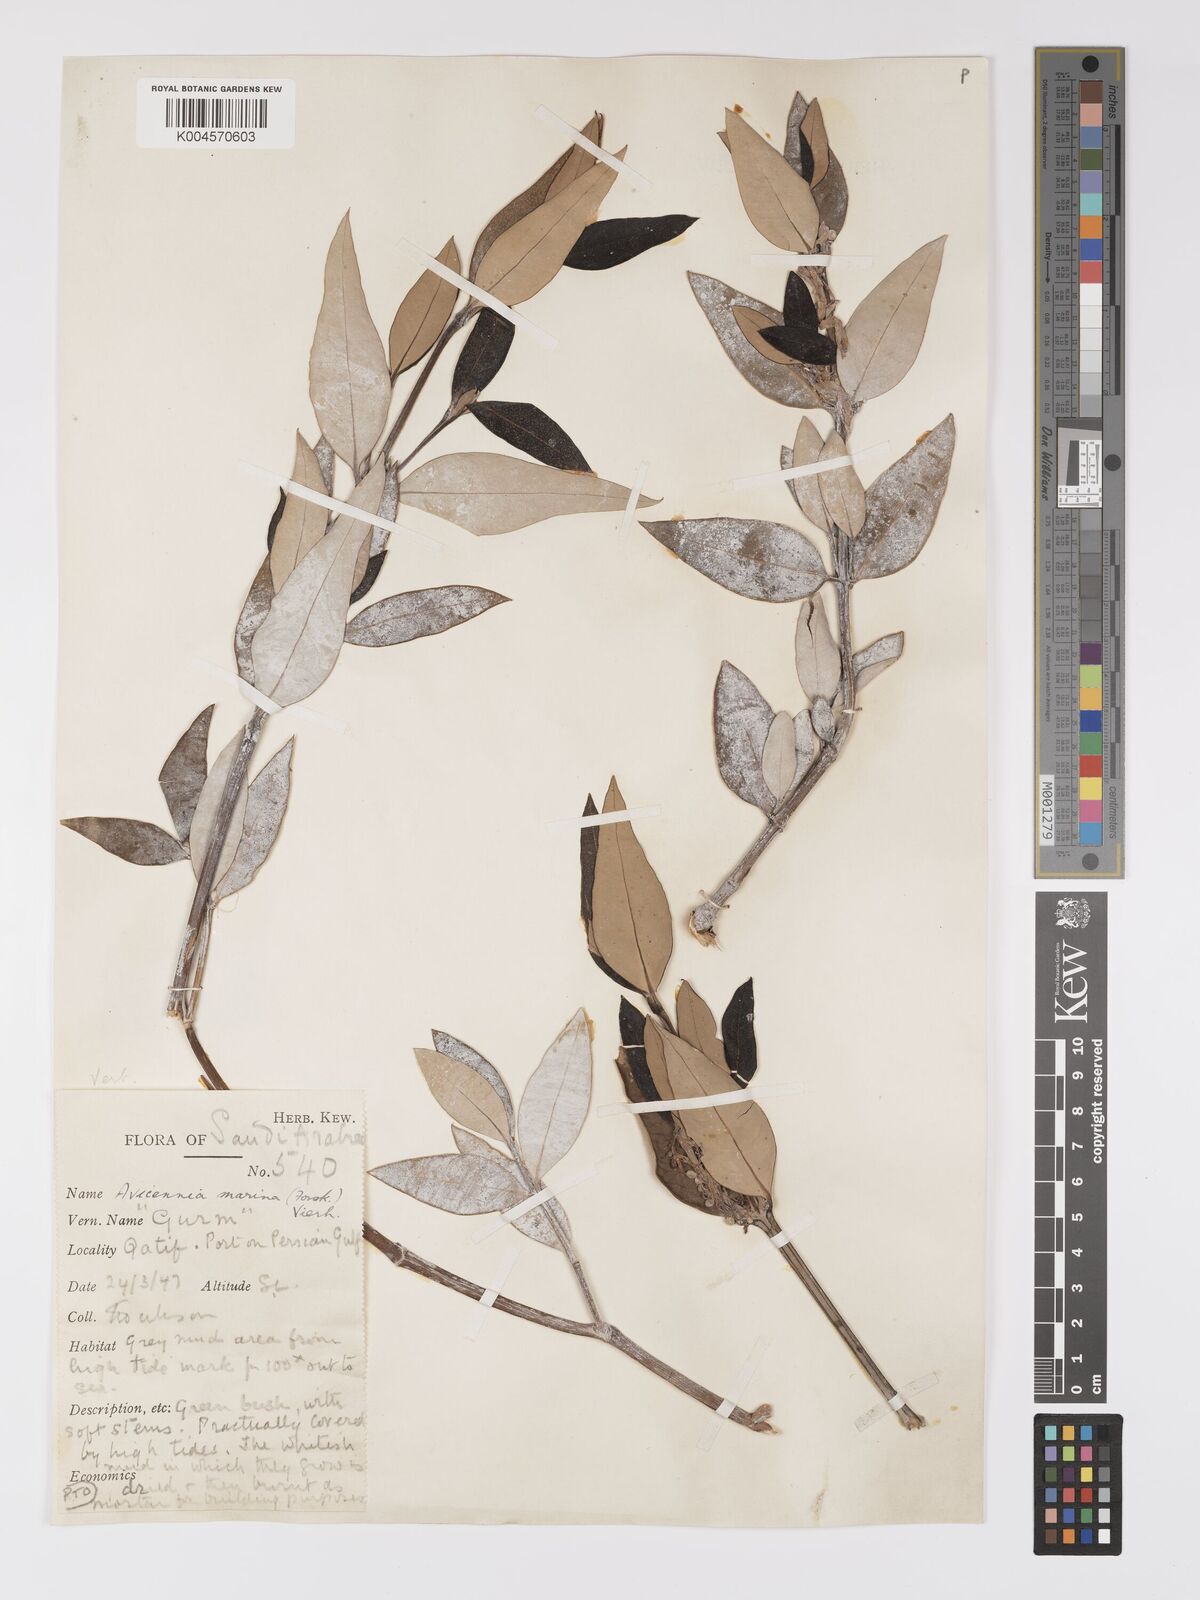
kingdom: Plantae
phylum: Tracheophyta
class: Magnoliopsida
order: Lamiales
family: Acanthaceae
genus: Avicennia
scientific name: Avicennia marina
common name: Gray mangrove
